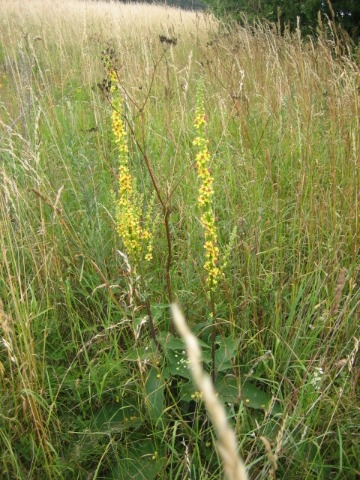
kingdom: Plantae
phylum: Tracheophyta
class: Magnoliopsida
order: Lamiales
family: Scrophulariaceae
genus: Verbascum
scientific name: Verbascum nigrum
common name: Mørk kongelys
